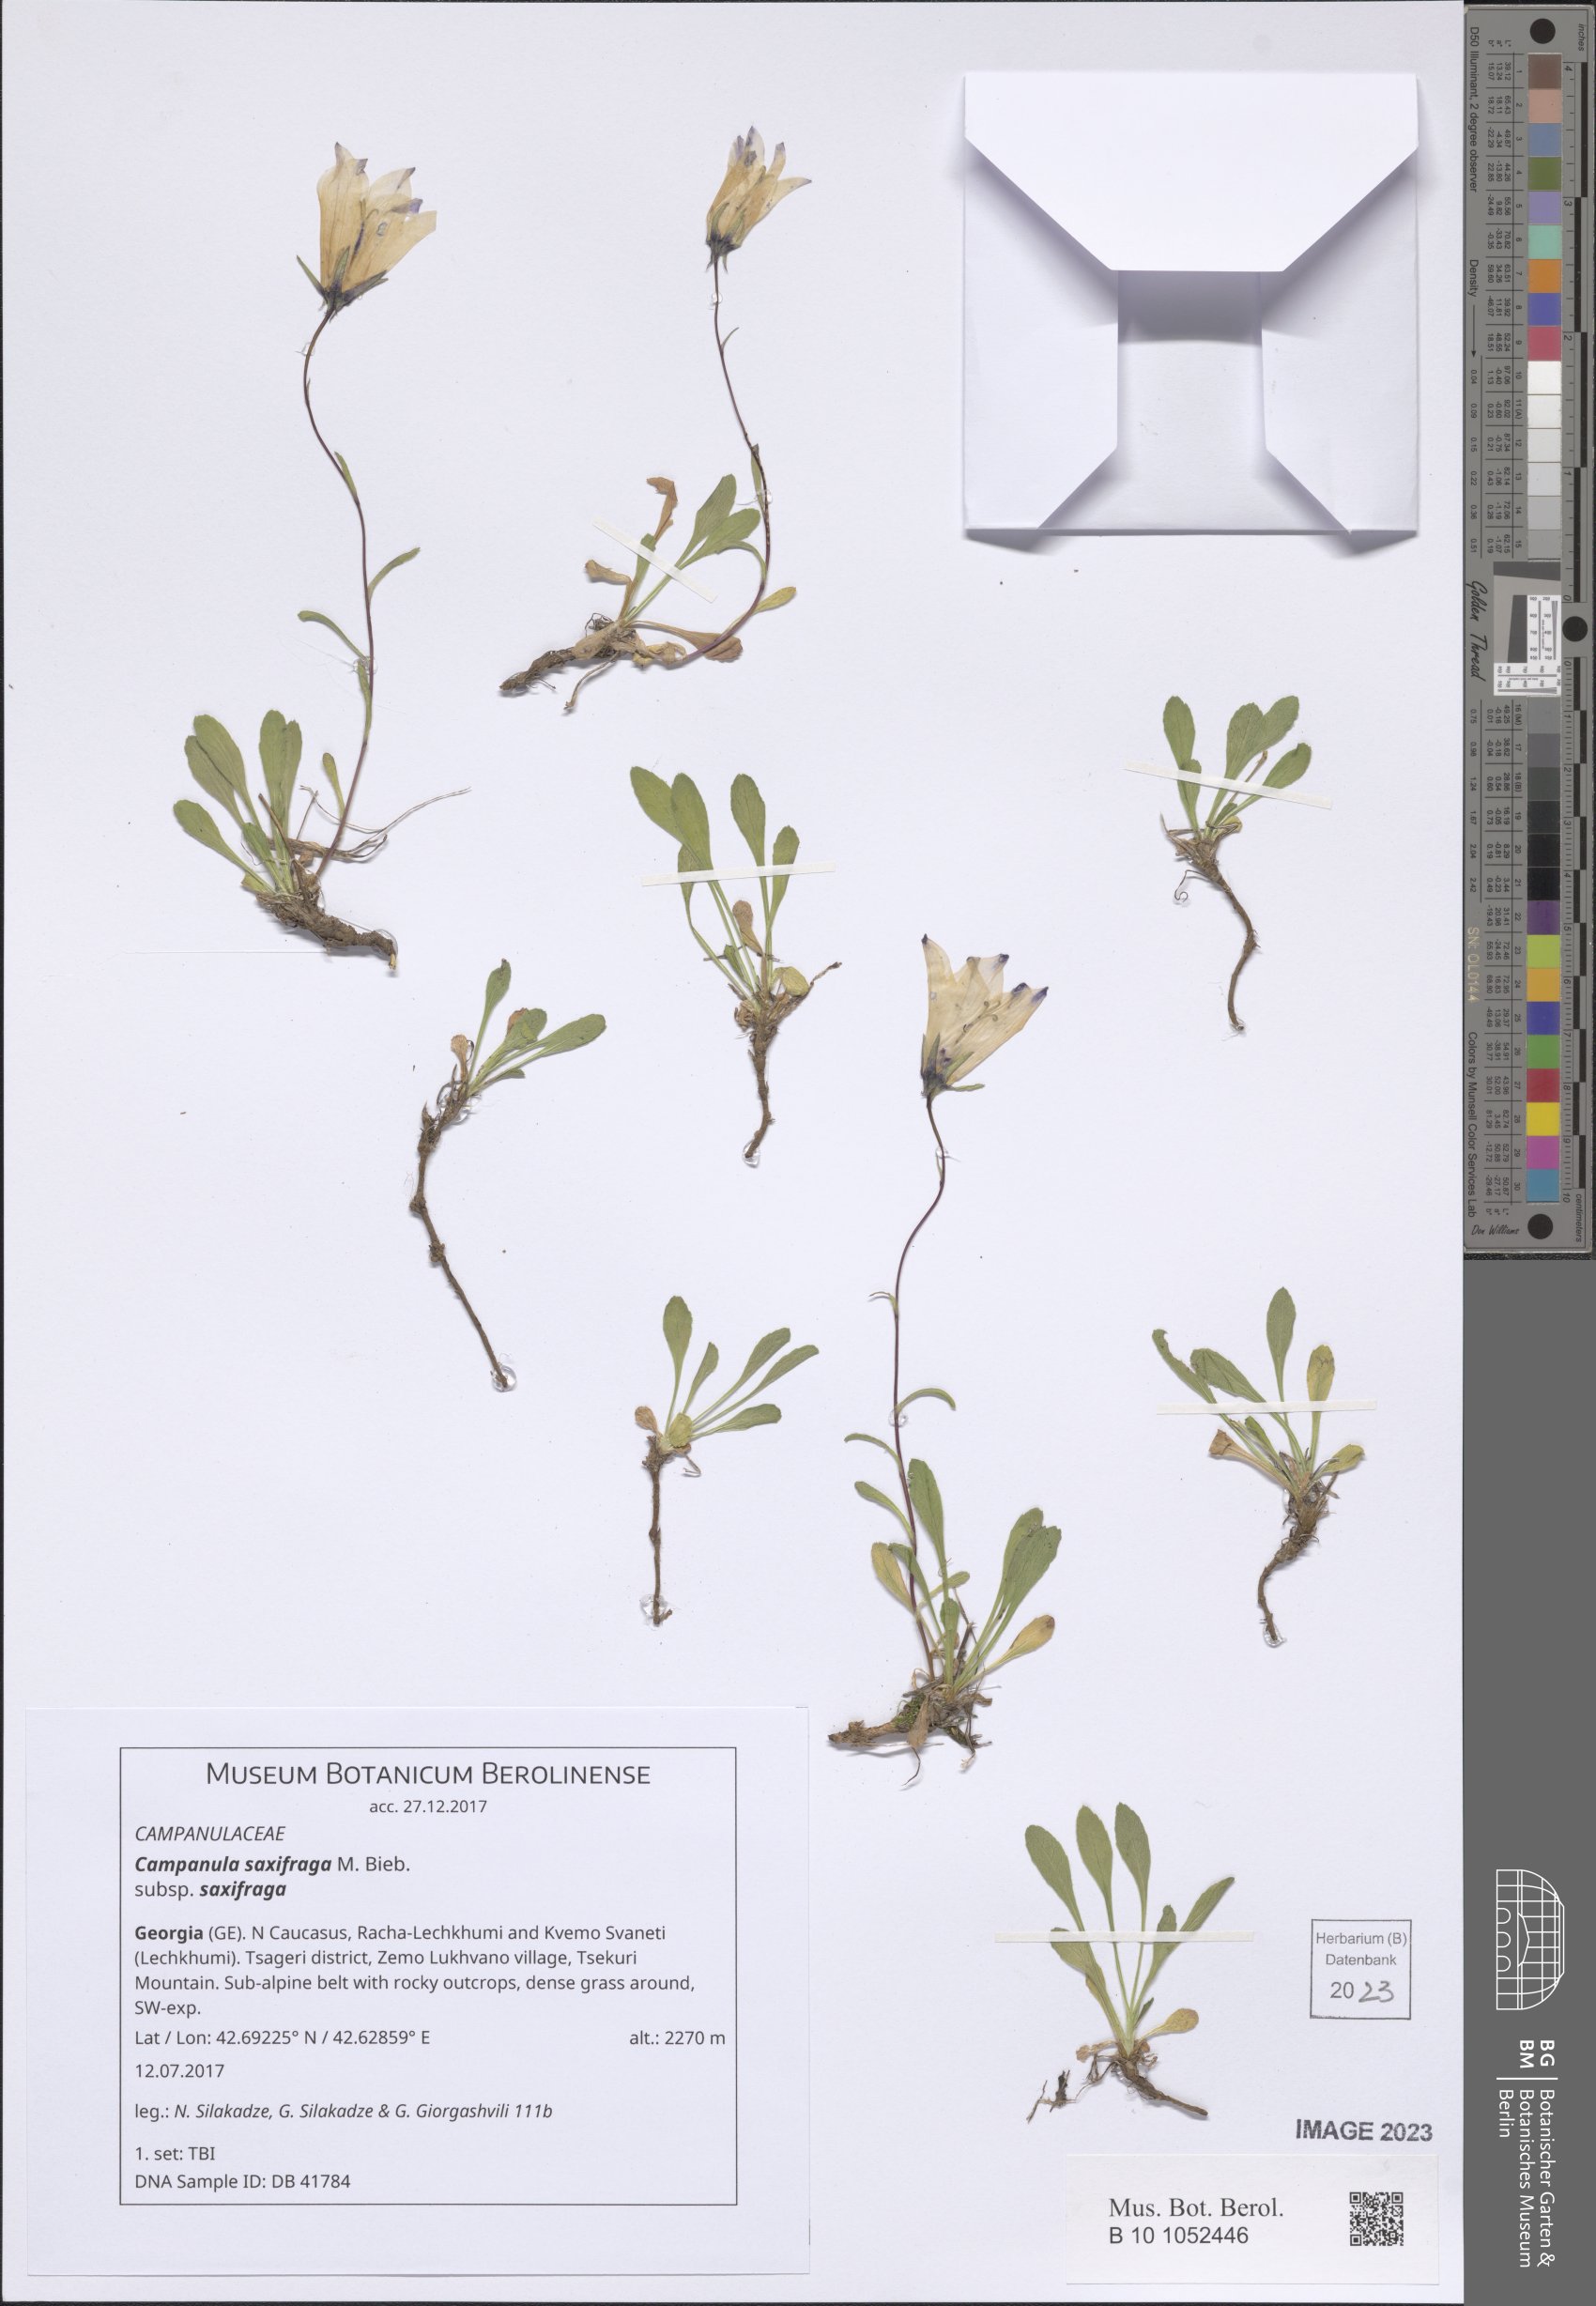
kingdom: Plantae
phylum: Tracheophyta
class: Magnoliopsida
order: Asterales
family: Campanulaceae
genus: Campanula
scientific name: Campanula saxifraga
